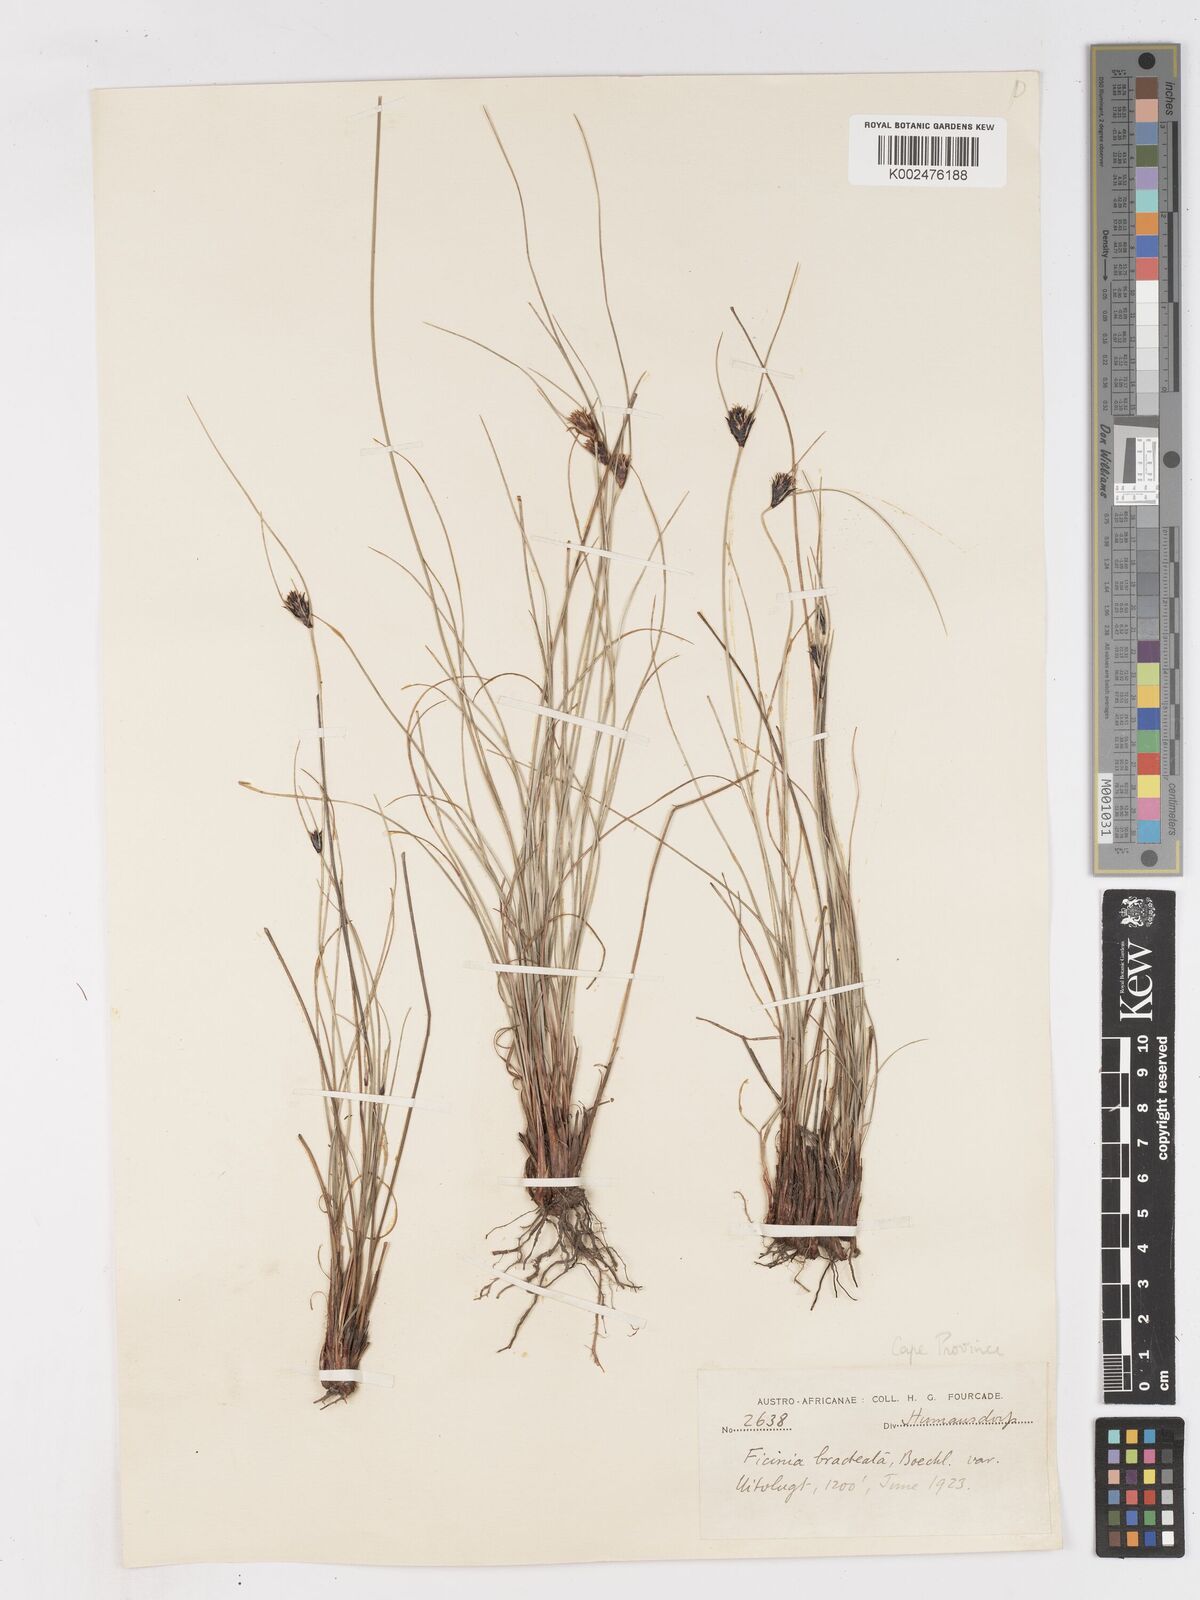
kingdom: Plantae
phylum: Tracheophyta
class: Liliopsida
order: Poales
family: Cyperaceae
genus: Ficinia
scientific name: Ficinia nigrescens
